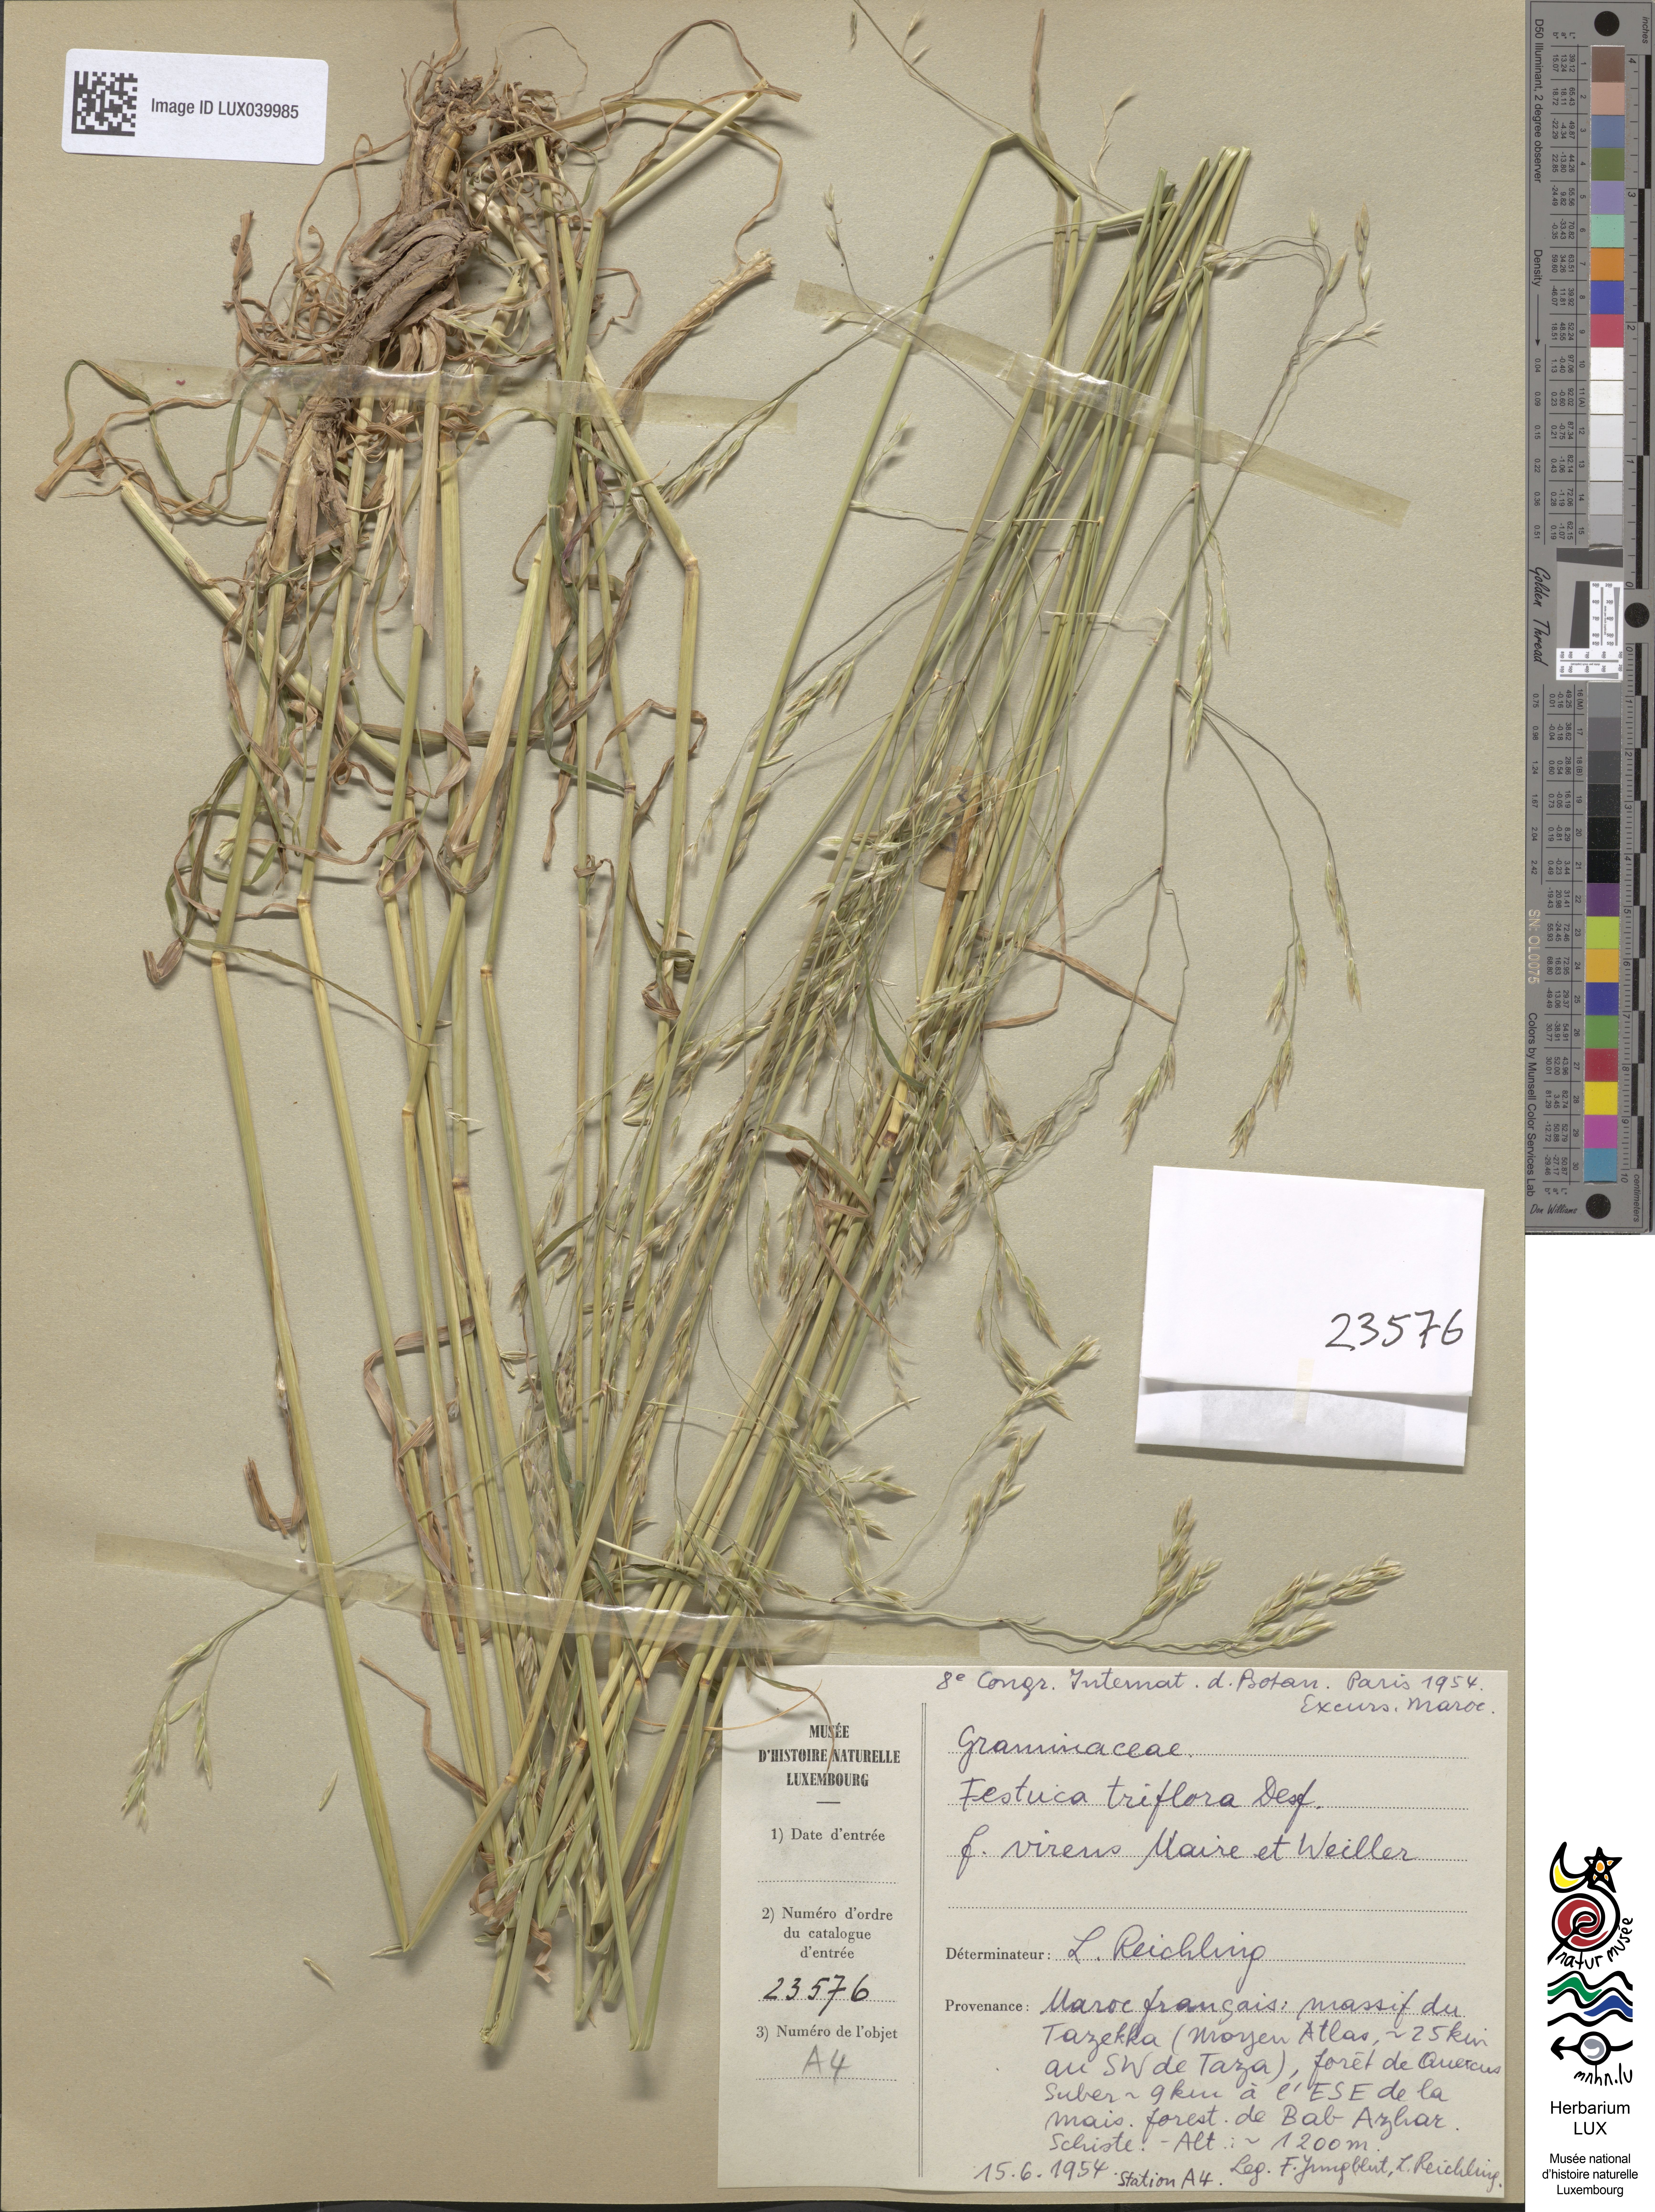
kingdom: Plantae
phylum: Tracheophyta
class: Liliopsida
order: Poales
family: Poaceae
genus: Patzkea
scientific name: Patzkea patula
